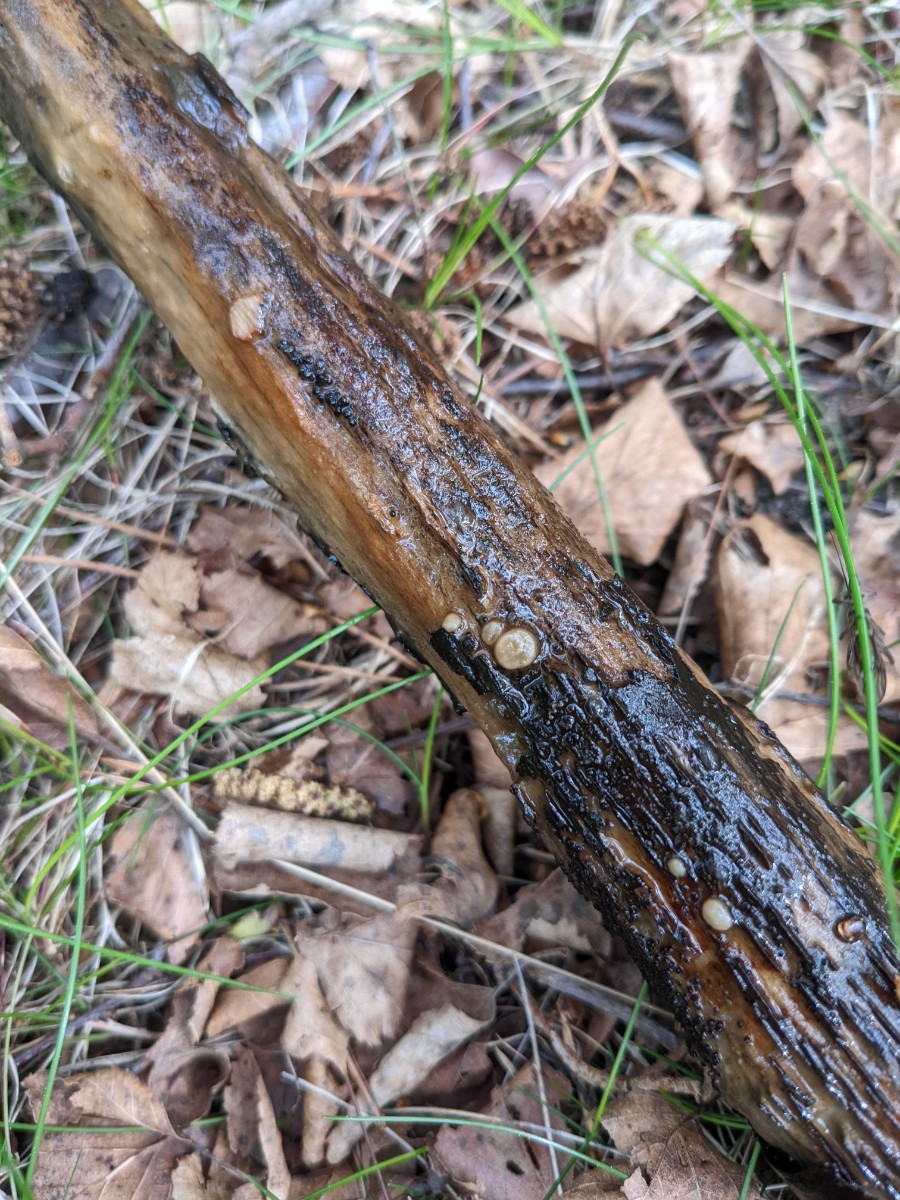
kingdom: Fungi
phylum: Ascomycota
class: Pezizomycetes
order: Pezizales
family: Pezizaceae
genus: Adelphella
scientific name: Adelphella babingtonii
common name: almindelig bækbæger
